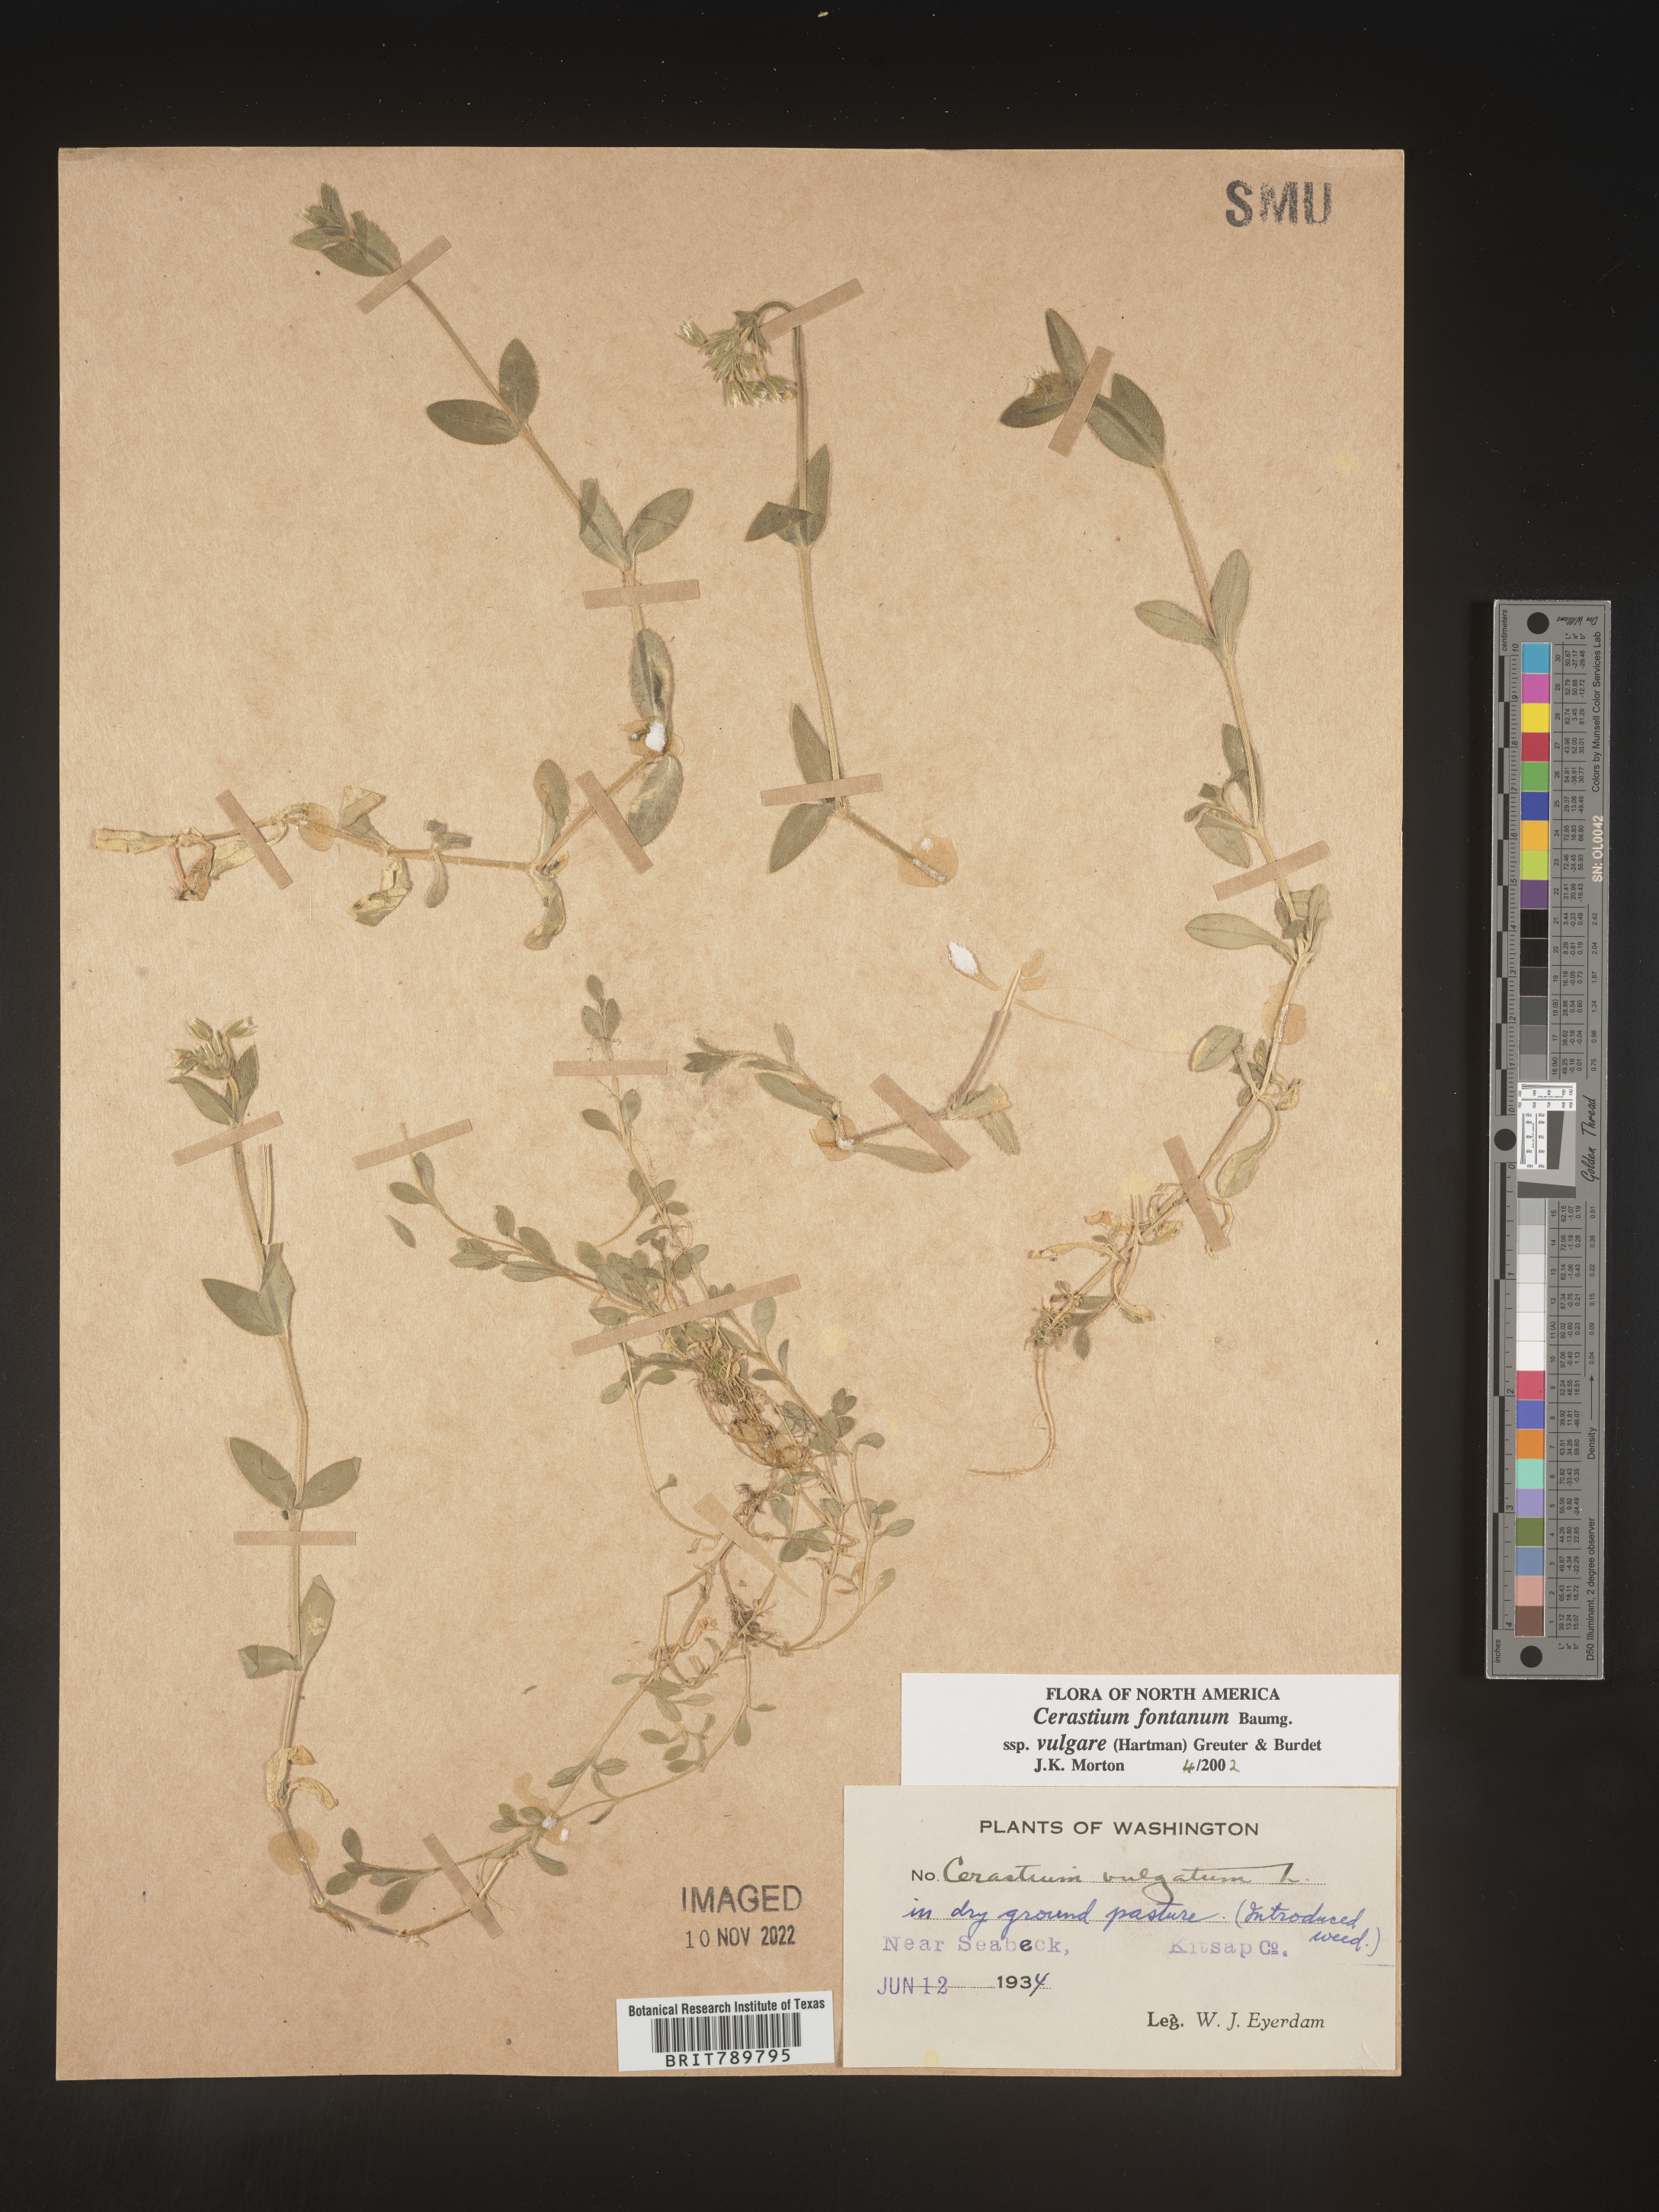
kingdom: Plantae
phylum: Tracheophyta
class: Magnoliopsida
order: Caryophyllales
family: Caryophyllaceae
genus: Cerastium
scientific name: Cerastium fontanum
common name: Common mouse-ear
